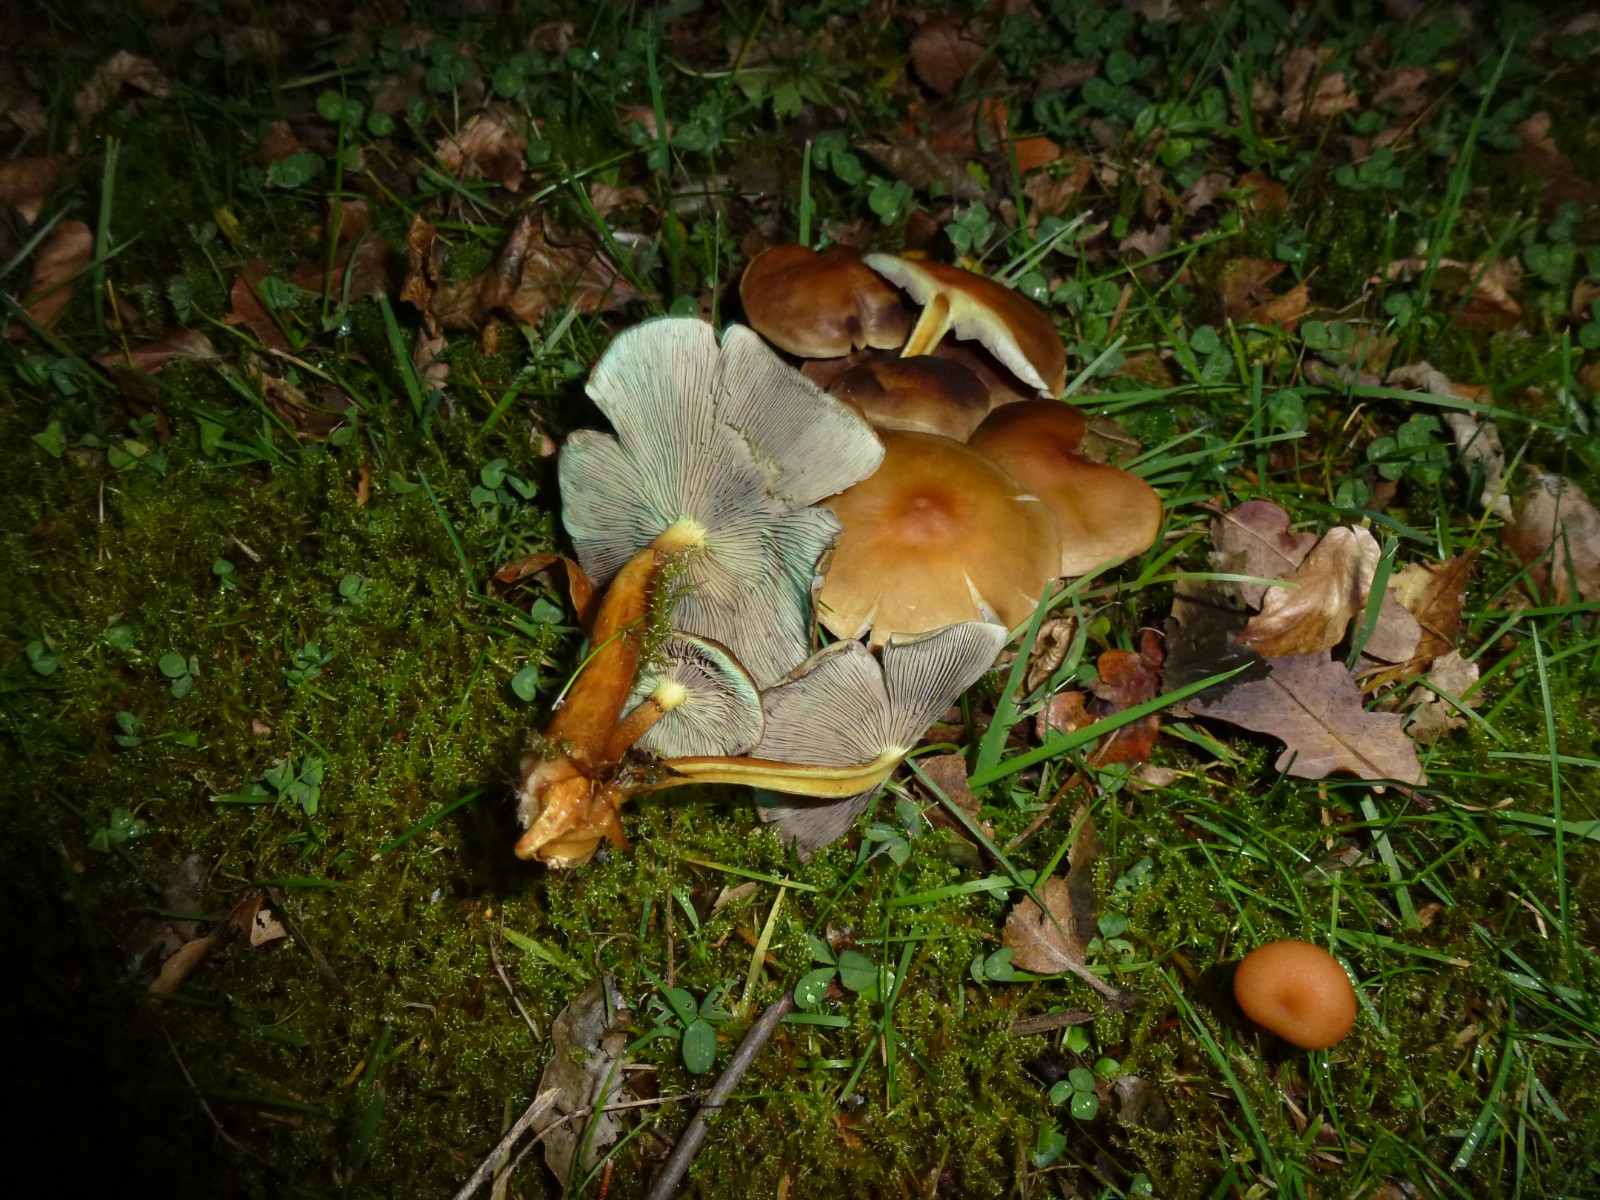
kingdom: Fungi
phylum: Basidiomycota
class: Agaricomycetes
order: Agaricales
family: Strophariaceae
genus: Hypholoma
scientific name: Hypholoma fasciculare
